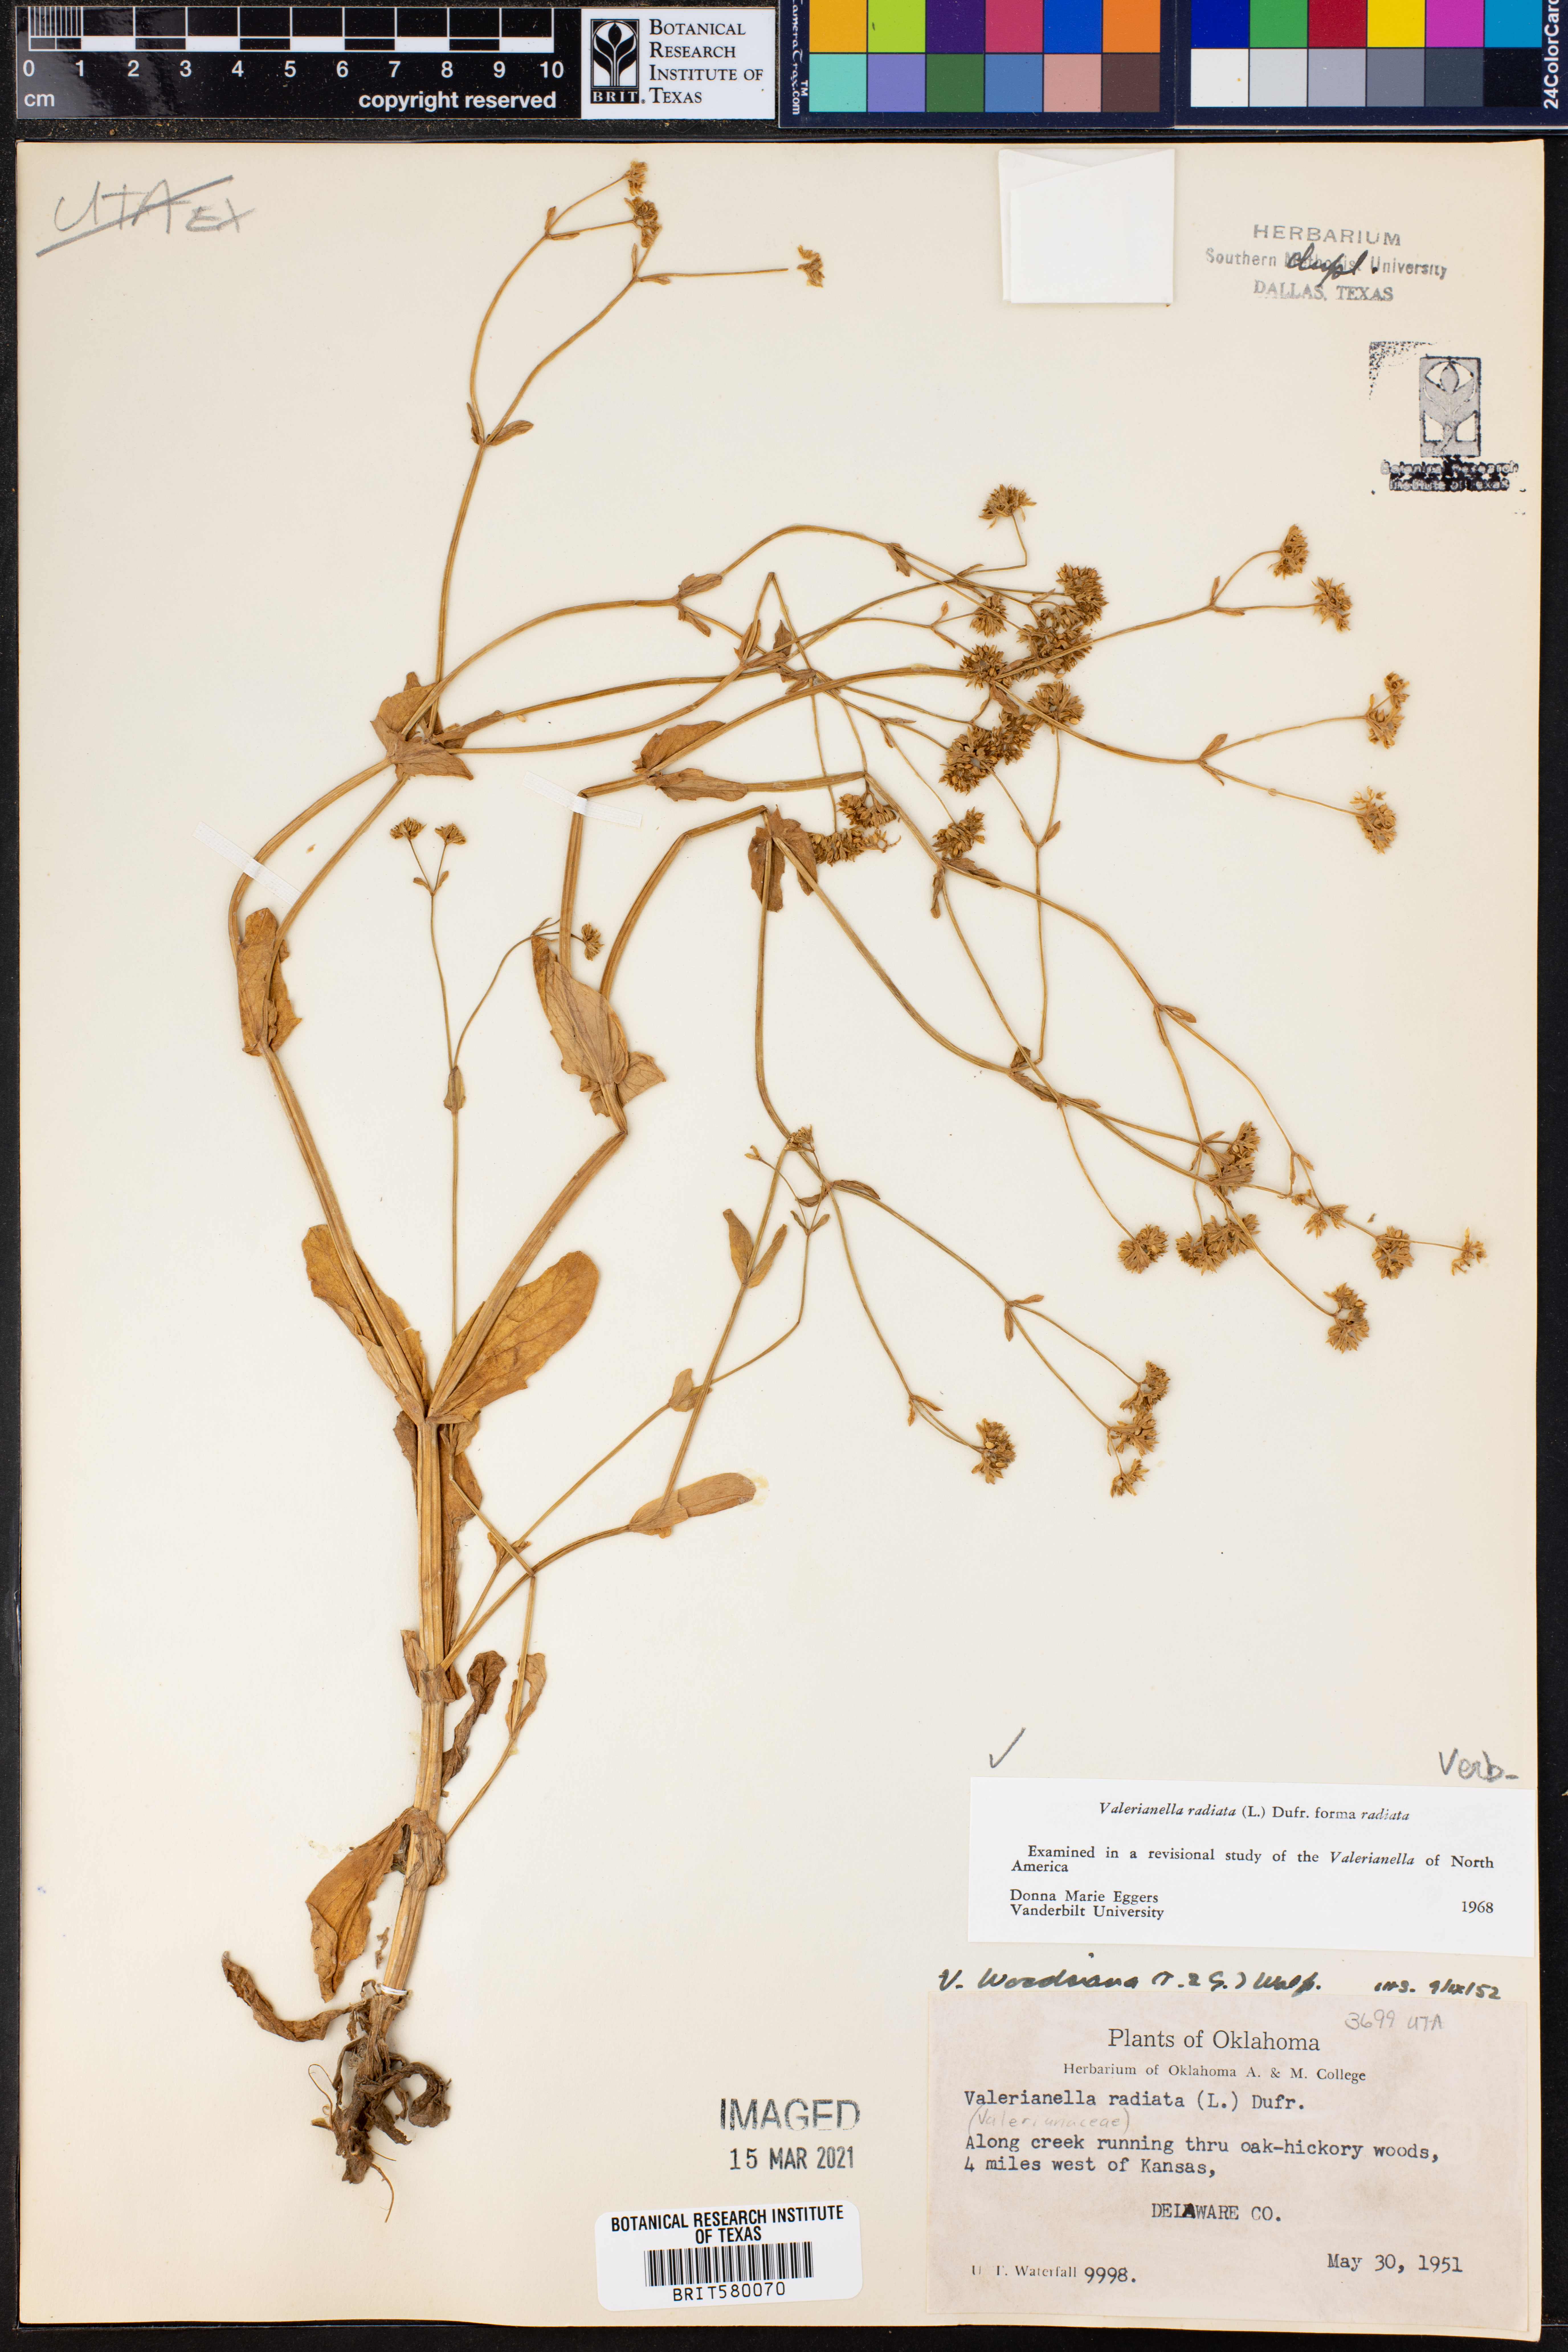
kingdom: Plantae
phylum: Tracheophyta
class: Magnoliopsida
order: Dipsacales
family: Caprifoliaceae
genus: Valerianella
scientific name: Valerianella radiata
